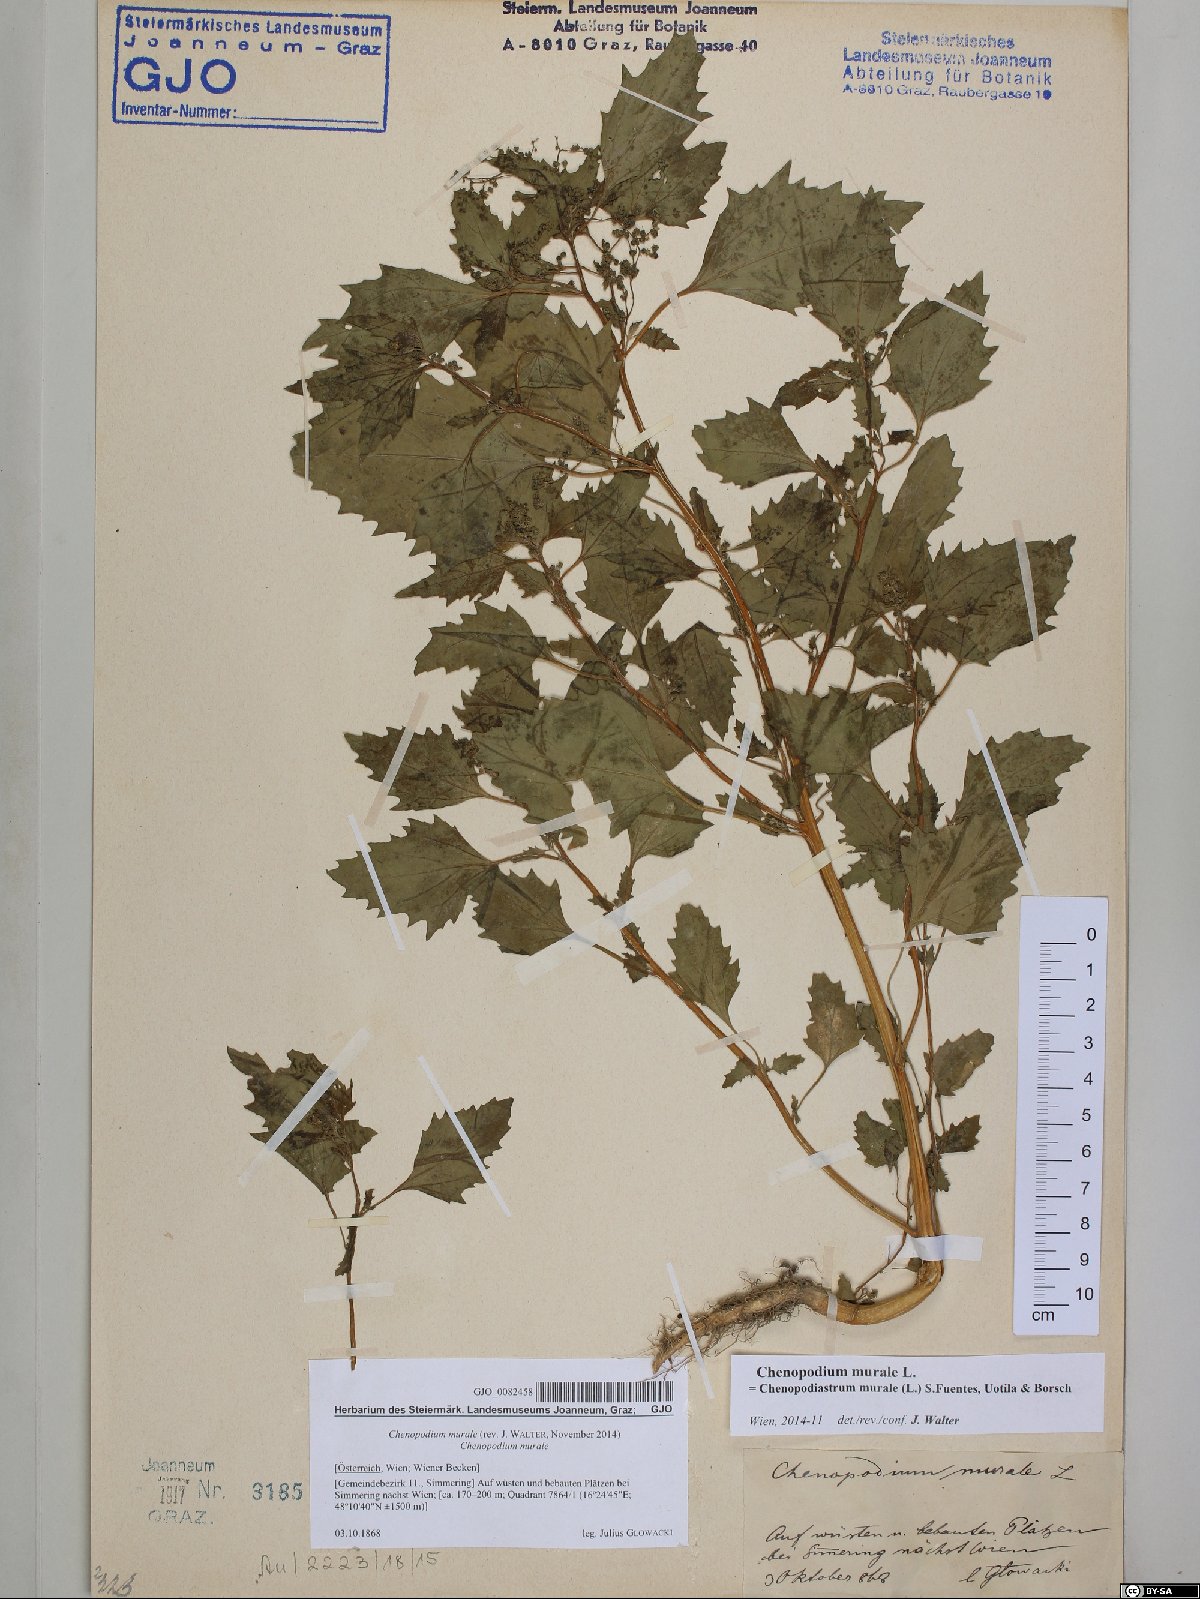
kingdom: Plantae
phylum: Tracheophyta
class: Magnoliopsida
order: Caryophyllales
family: Amaranthaceae
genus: Chenopodiastrum
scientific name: Chenopodiastrum murale
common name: Sowbane
